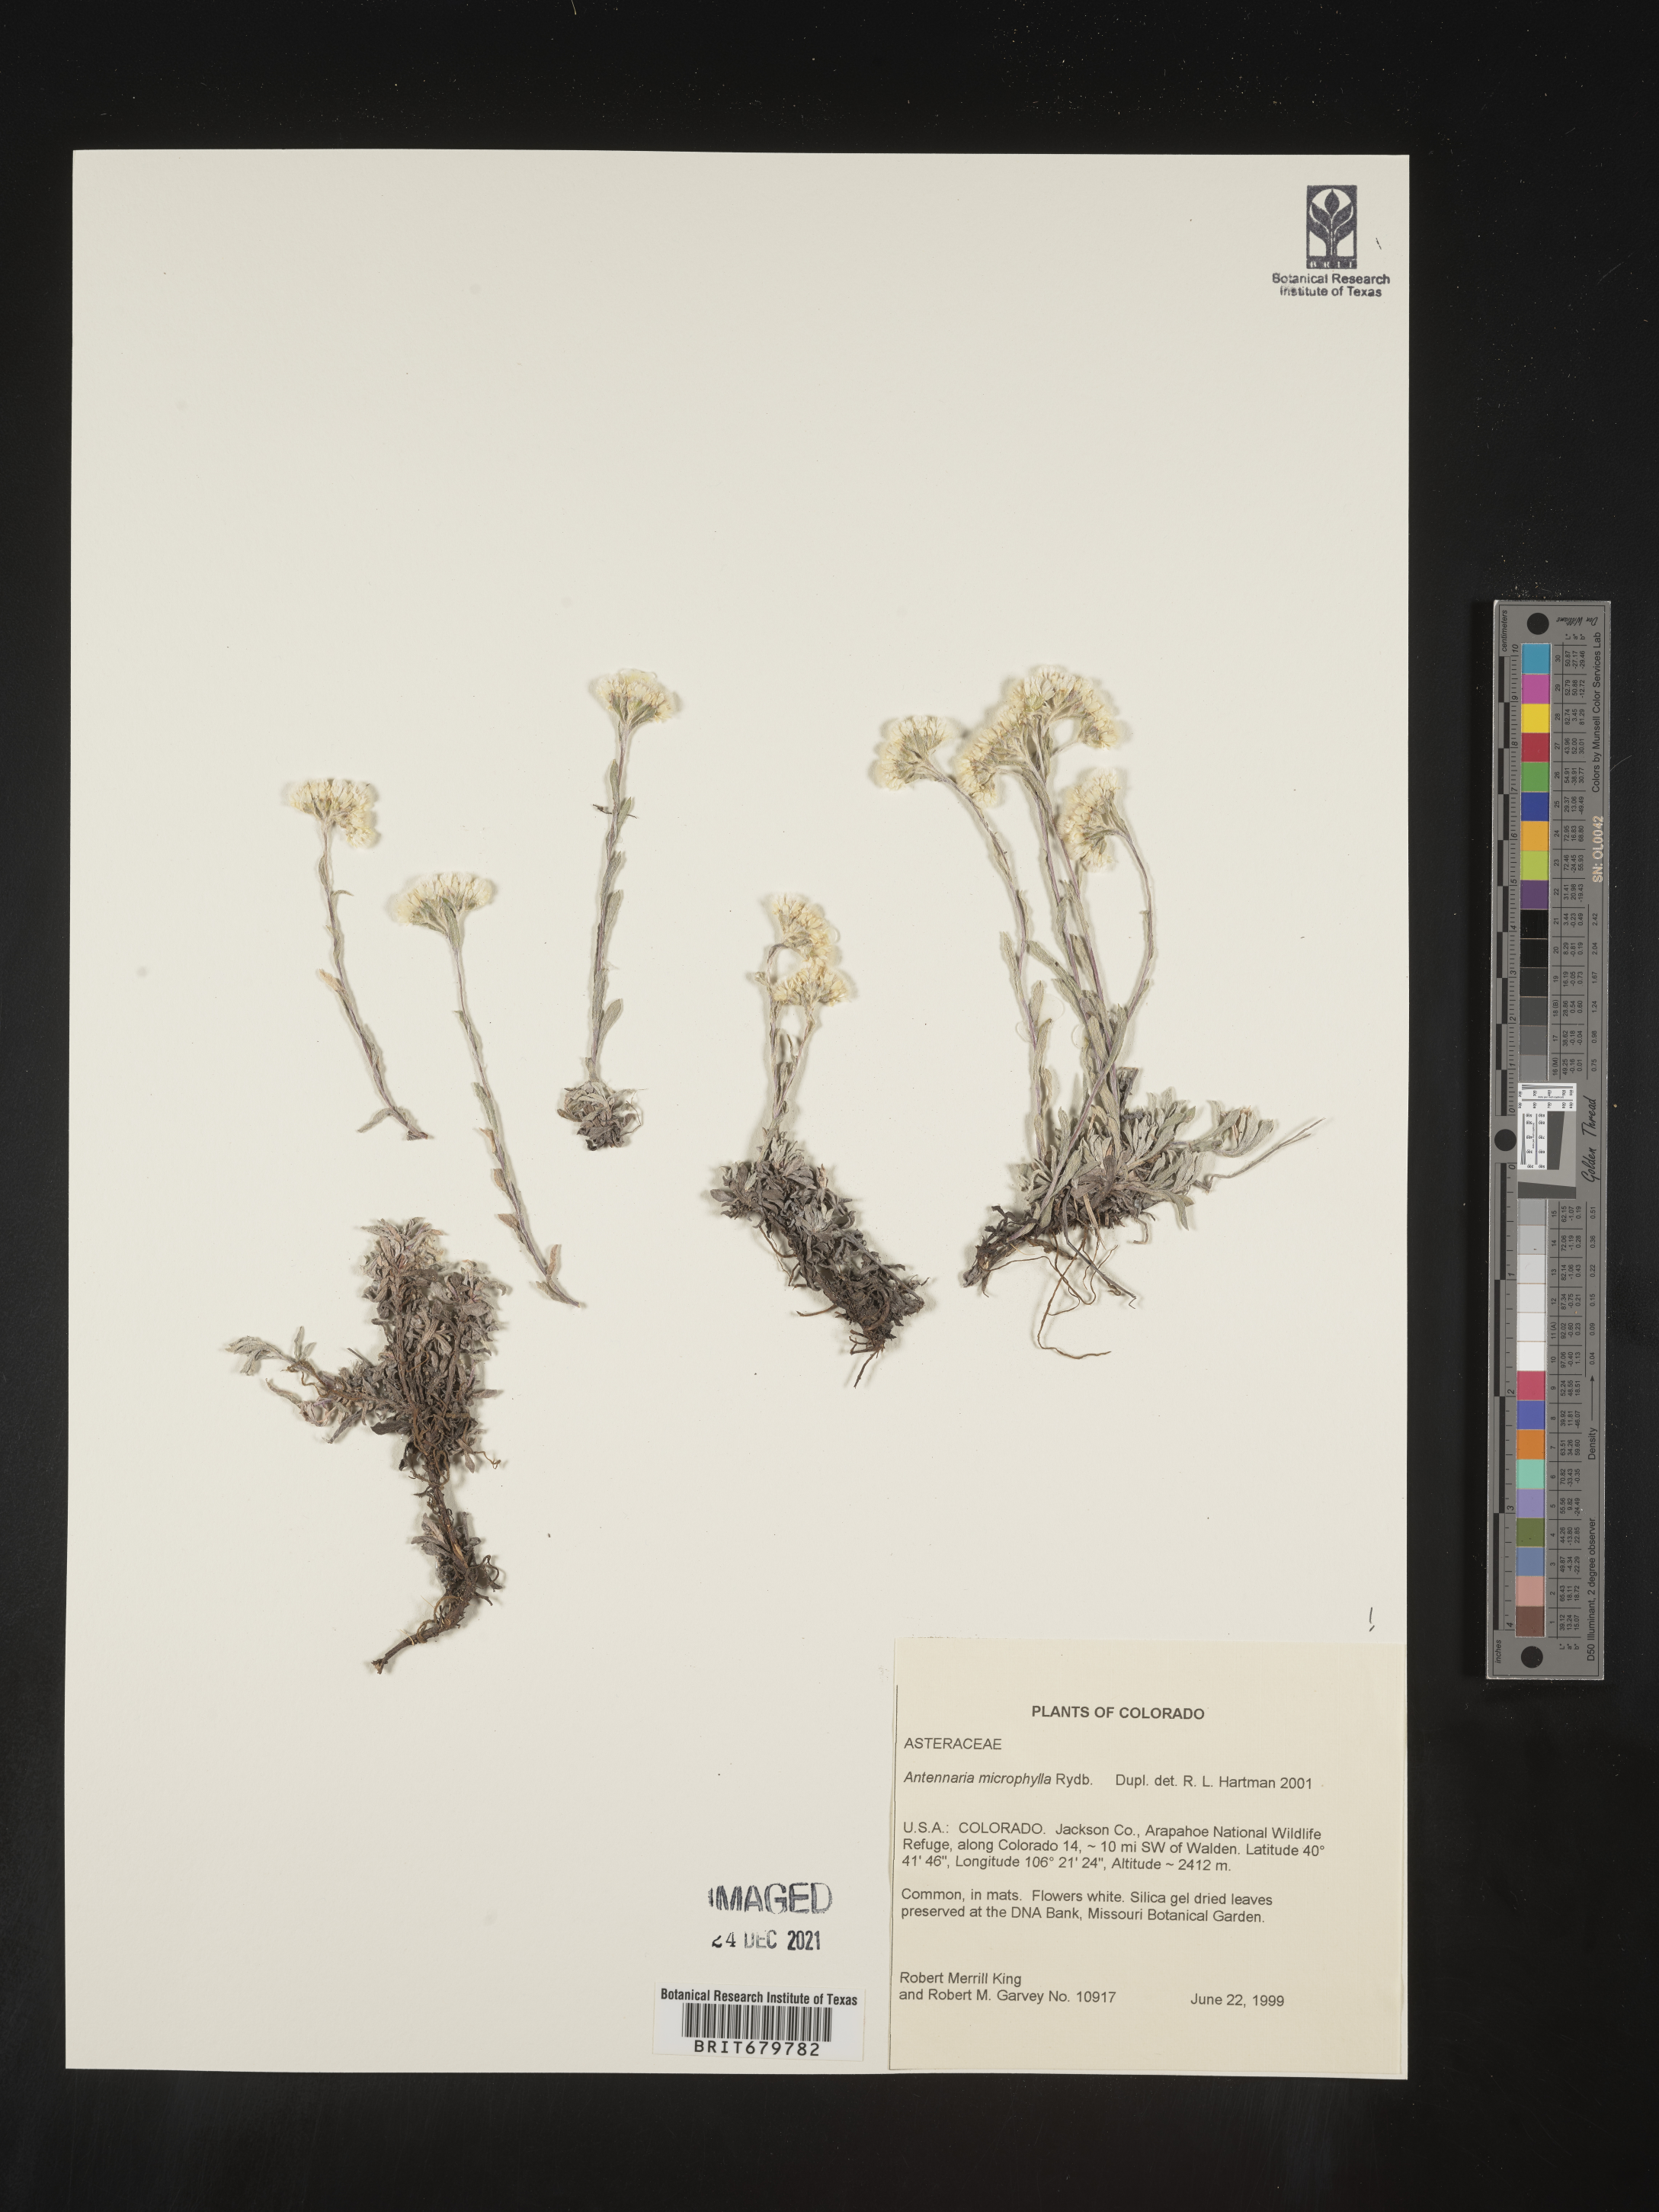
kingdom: Plantae
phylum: Tracheophyta
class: Magnoliopsida
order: Asterales
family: Asteraceae
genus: Antennaria
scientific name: Antennaria microphylla
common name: Littleleaf pussytoes
